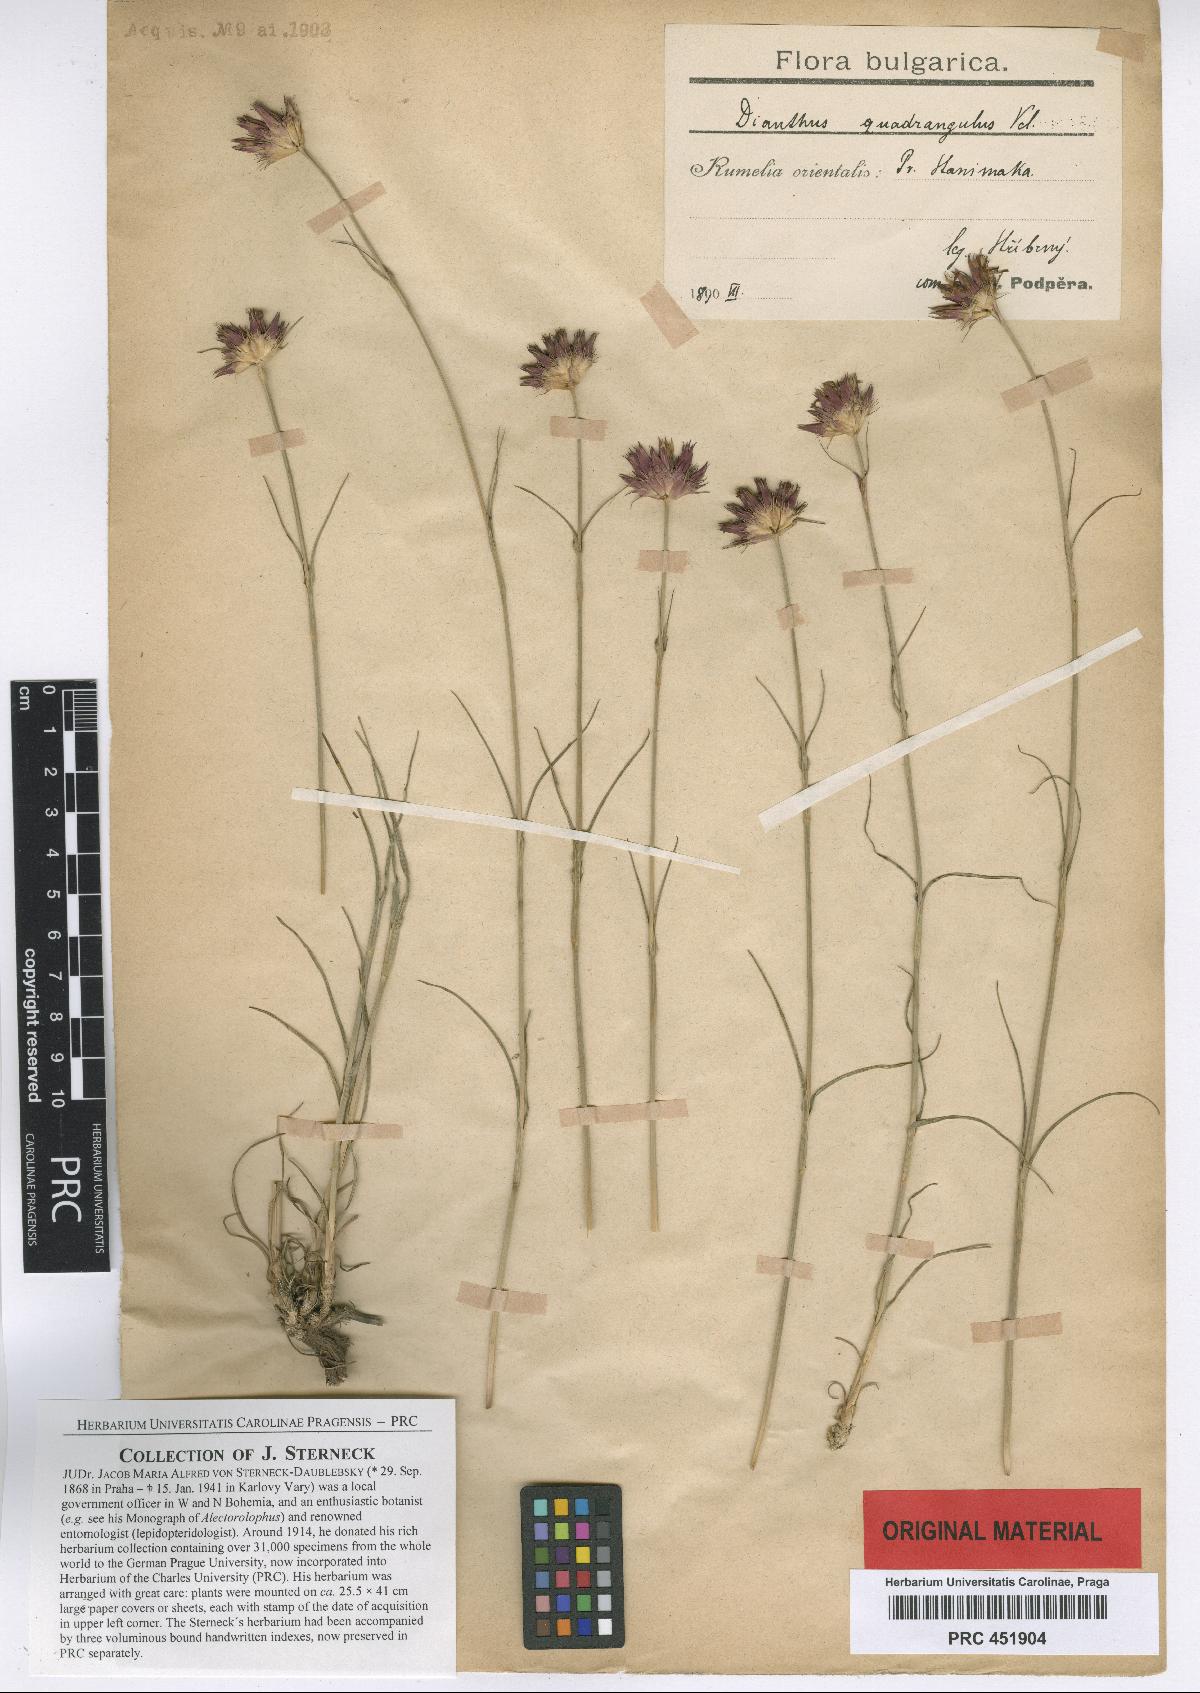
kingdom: Plantae
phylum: Tracheophyta
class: Magnoliopsida
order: Caryophyllales
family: Caryophyllaceae
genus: Dianthus
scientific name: Dianthus cruentus
